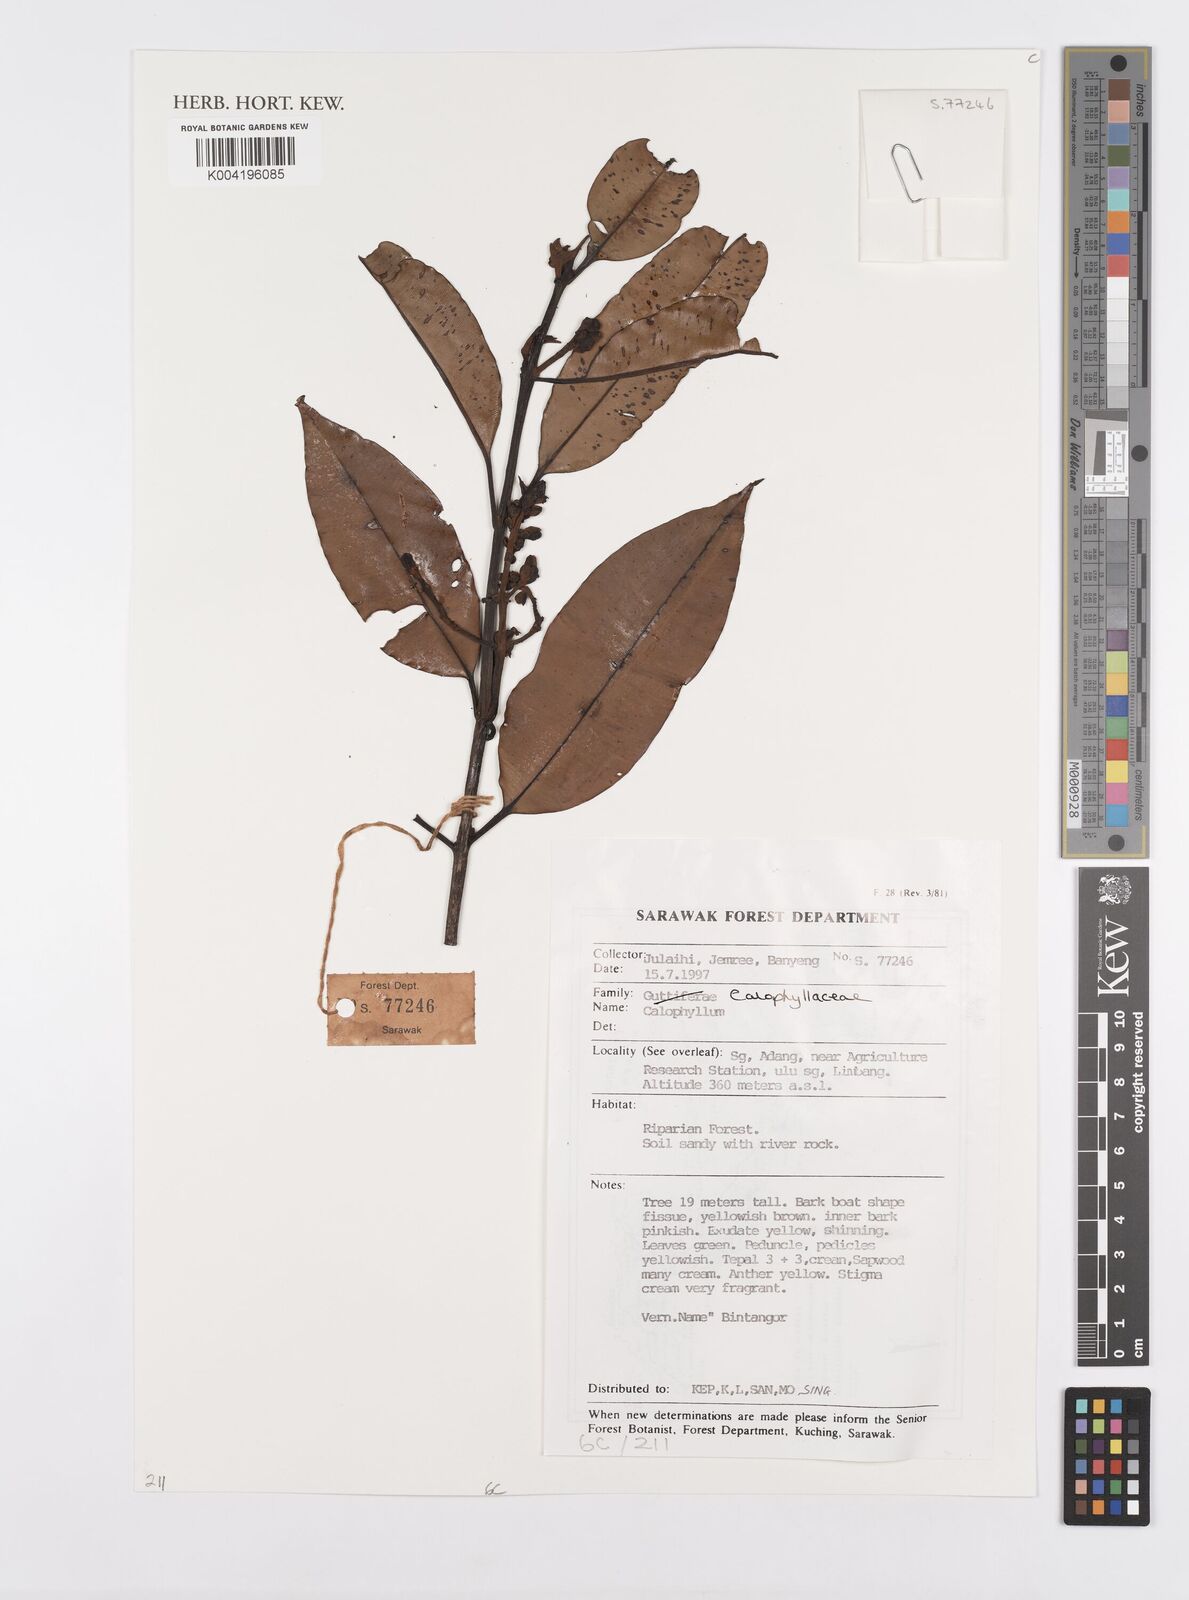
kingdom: Plantae
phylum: Tracheophyta
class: Magnoliopsida
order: Malpighiales
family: Calophyllaceae
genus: Calophyllum
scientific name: Calophyllum
